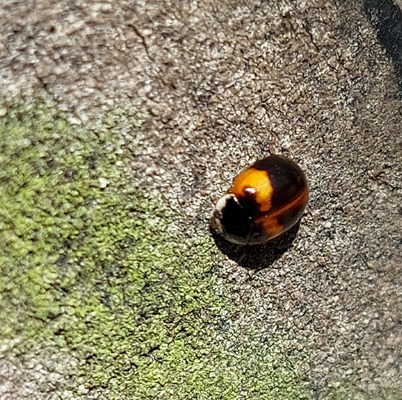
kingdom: Animalia
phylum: Arthropoda
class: Insecta
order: Coleoptera
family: Coccinellidae
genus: Adalia
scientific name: Adalia decempunctata
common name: Tiplettet mariehøne
